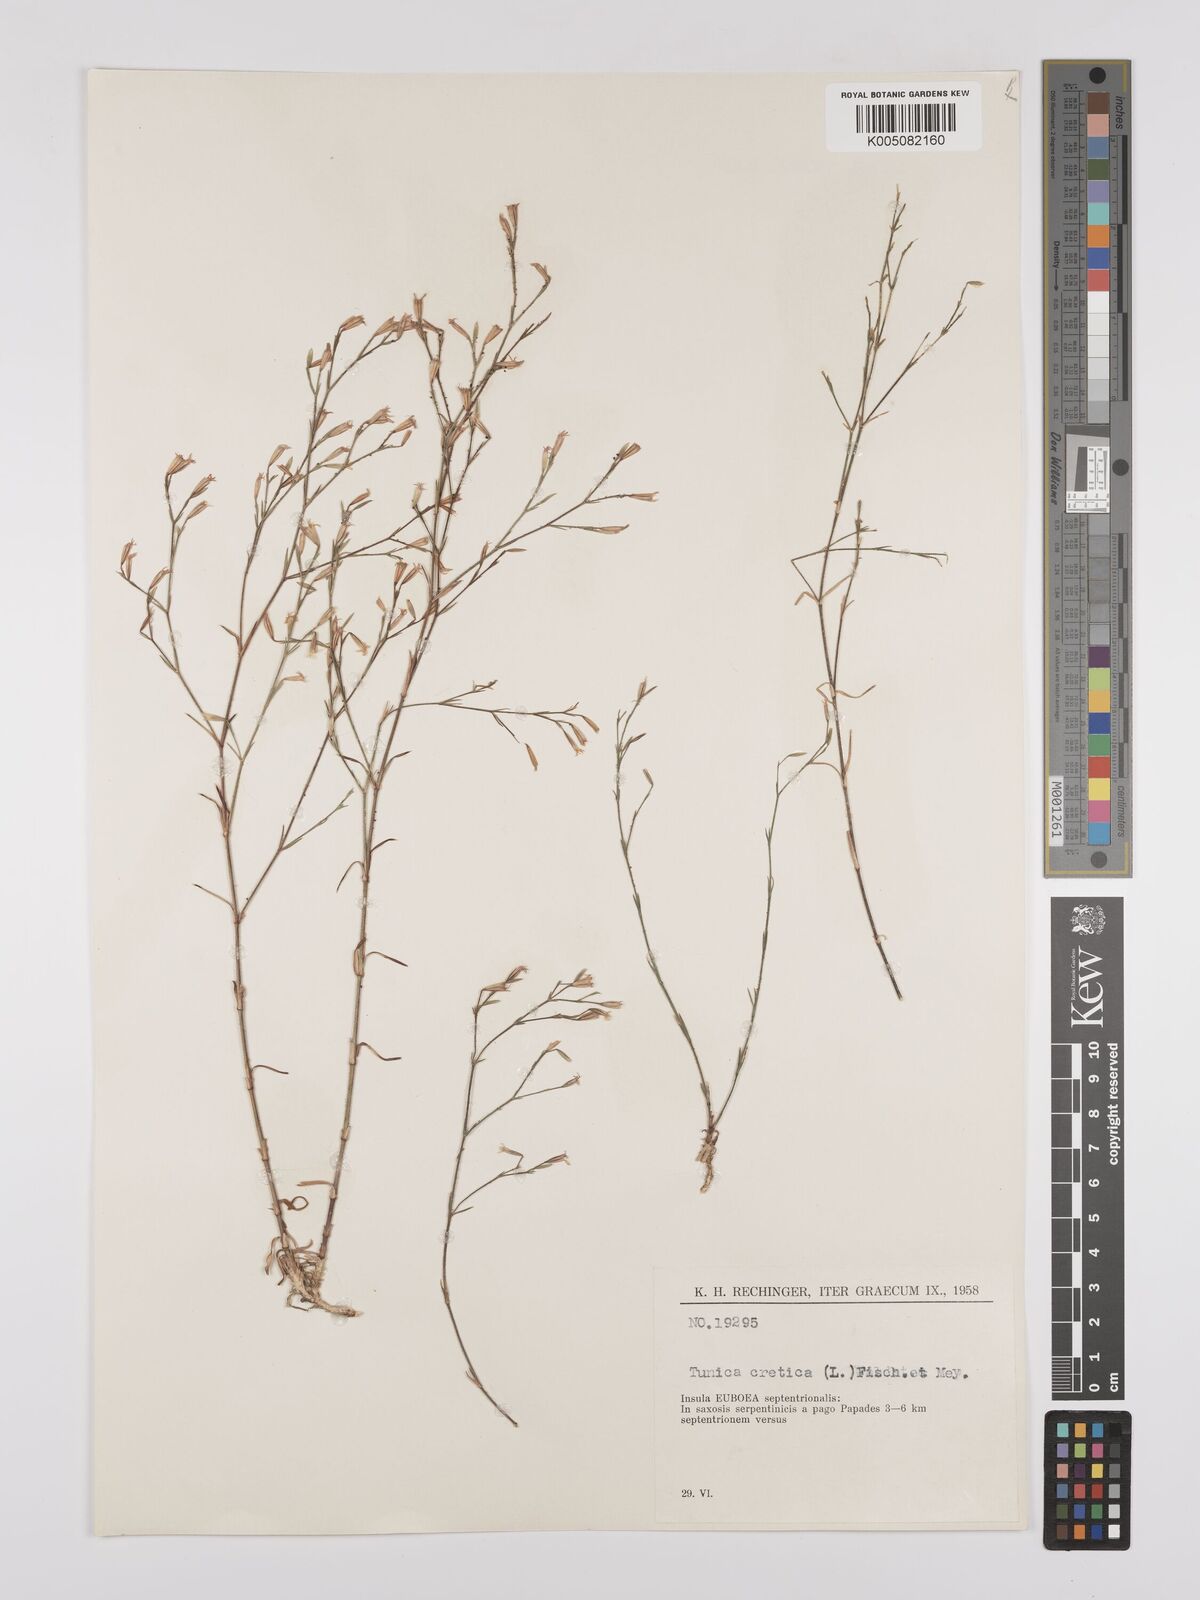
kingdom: Plantae
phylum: Tracheophyta
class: Magnoliopsida
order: Caryophyllales
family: Caryophyllaceae
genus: Petrorhagia
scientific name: Petrorhagia cretica
